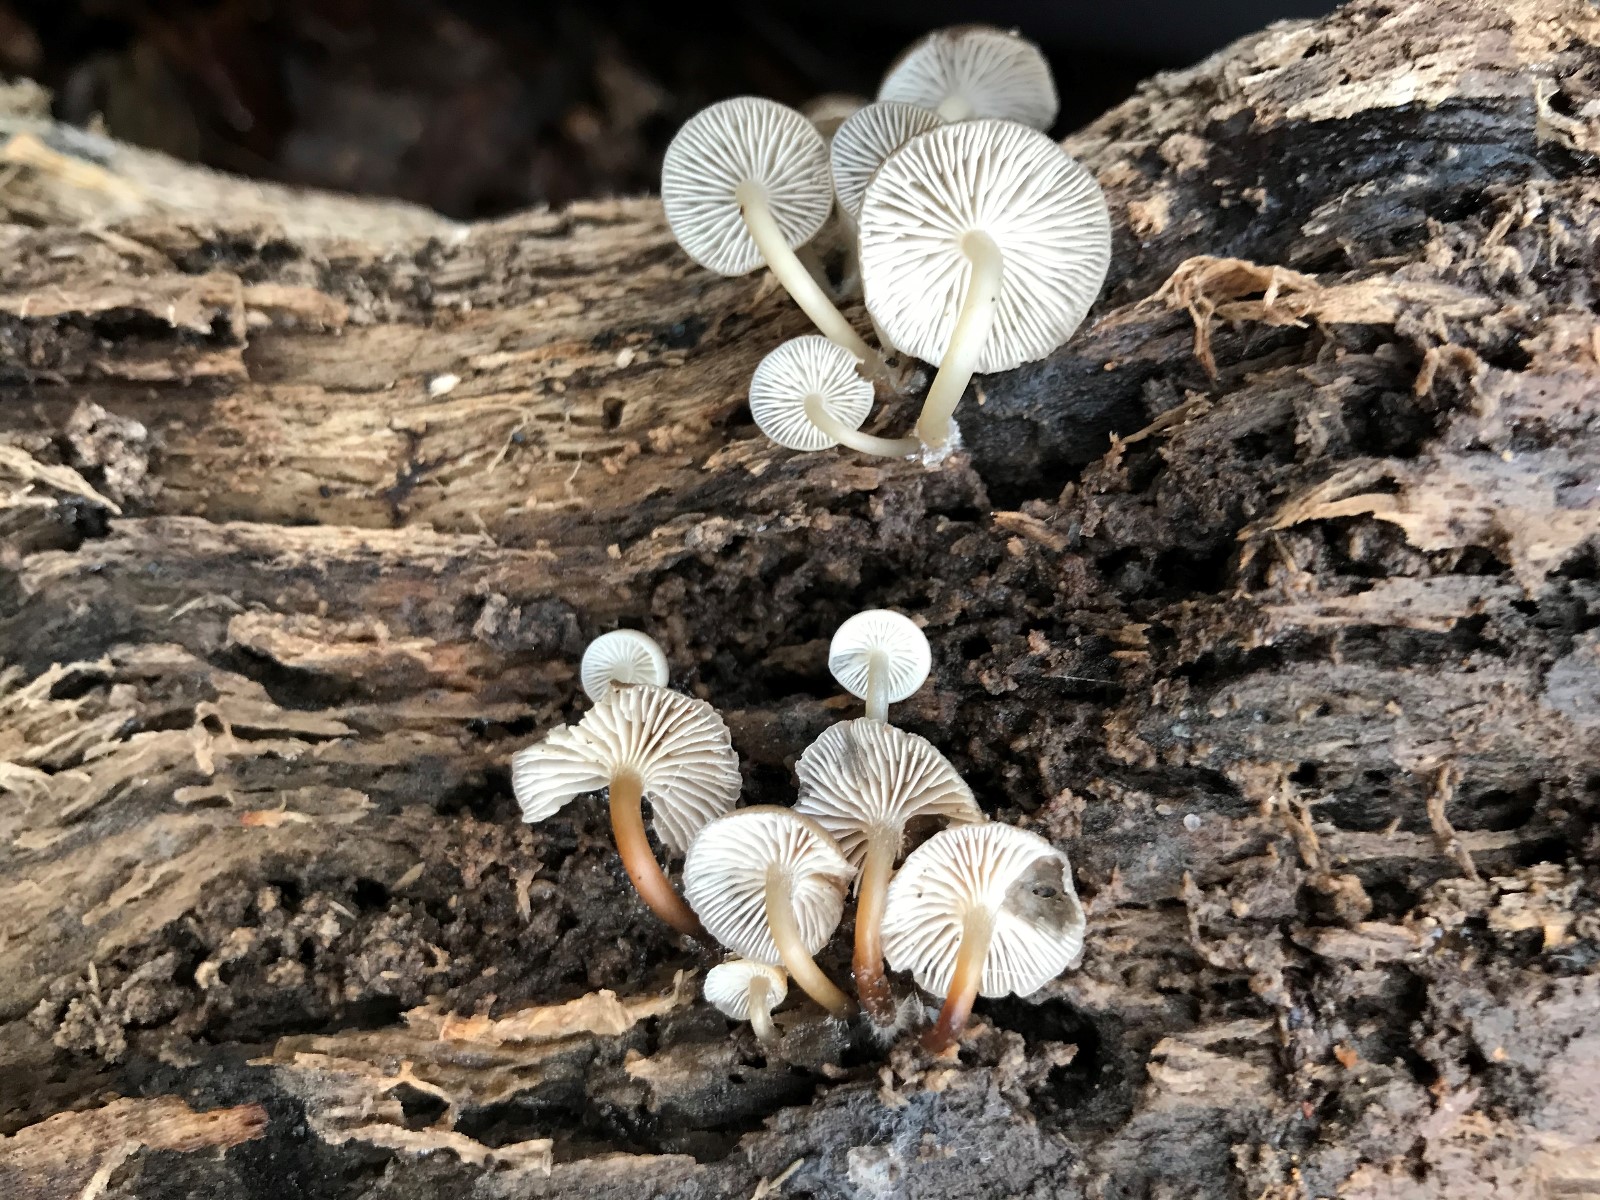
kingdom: Fungi
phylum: Basidiomycota
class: Agaricomycetes
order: Agaricales
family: Mycenaceae
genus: Mycena
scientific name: Mycena tintinnabulum
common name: vinter-huesvamp
